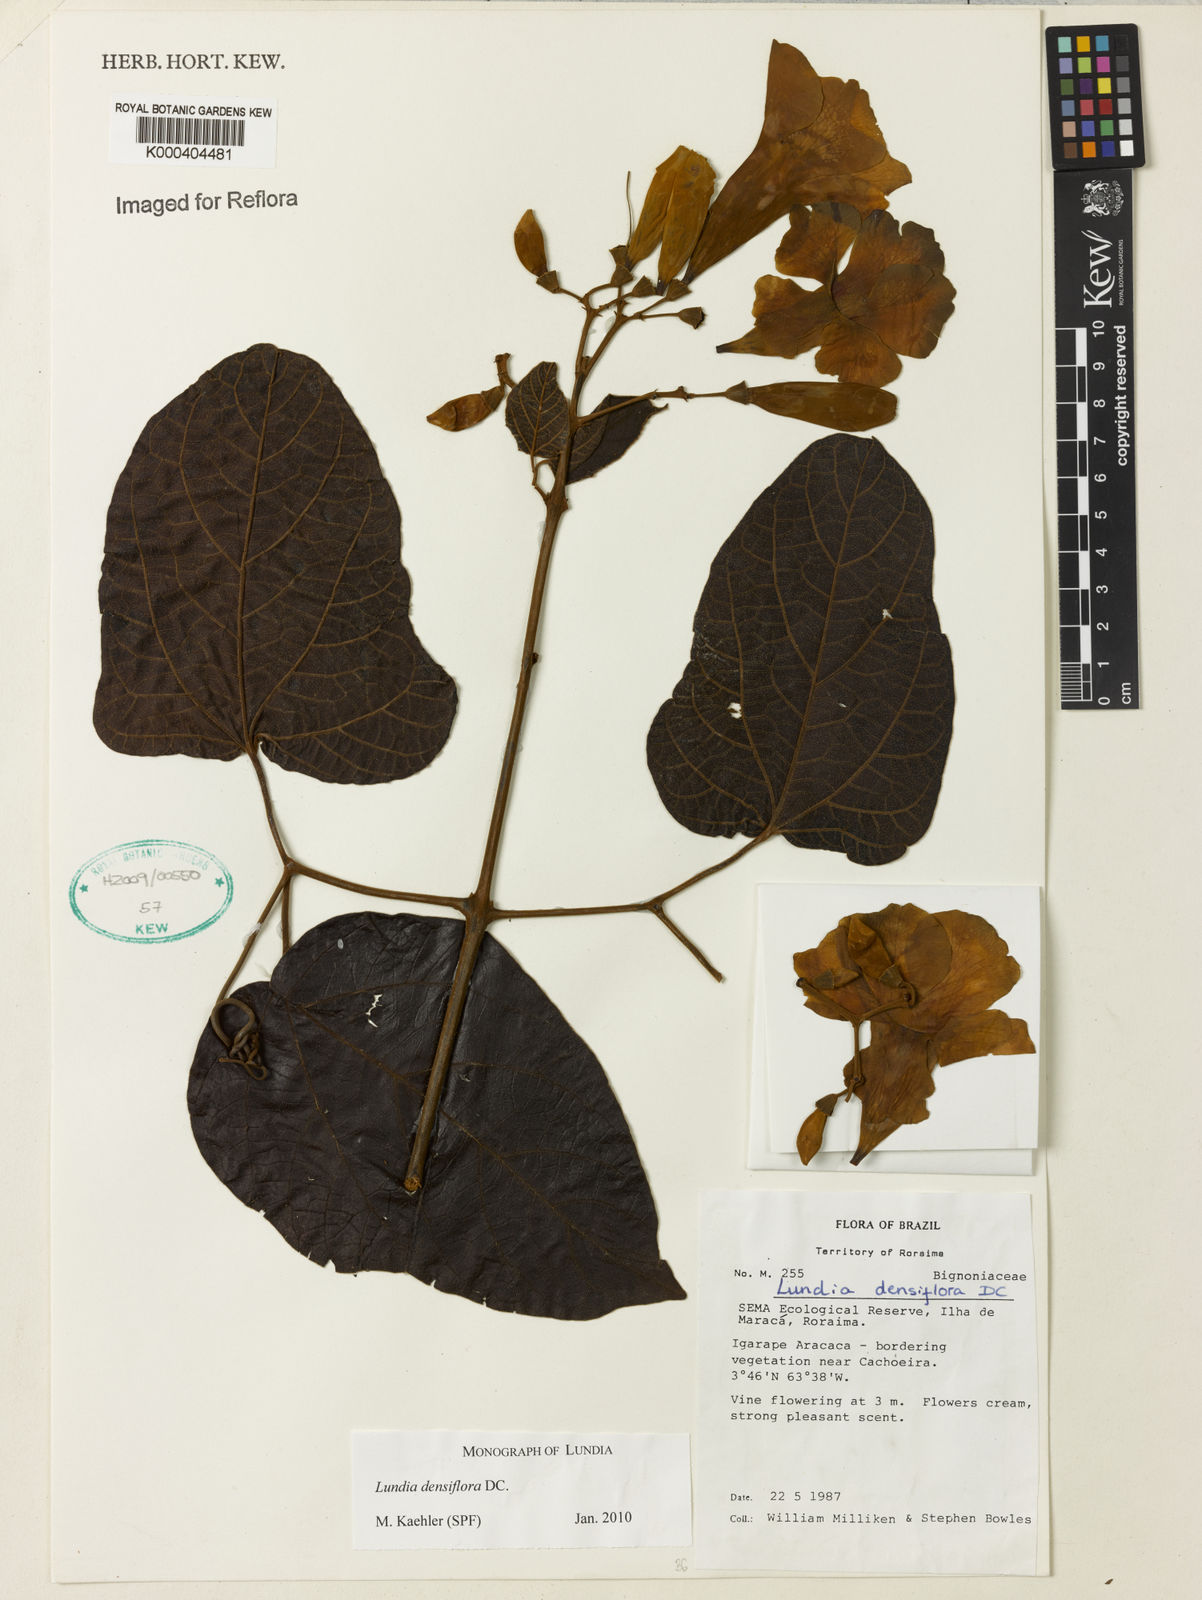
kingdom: Plantae
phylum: Tracheophyta
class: Magnoliopsida
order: Lamiales
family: Bignoniaceae
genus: Lundia
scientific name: Lundia densiflora
